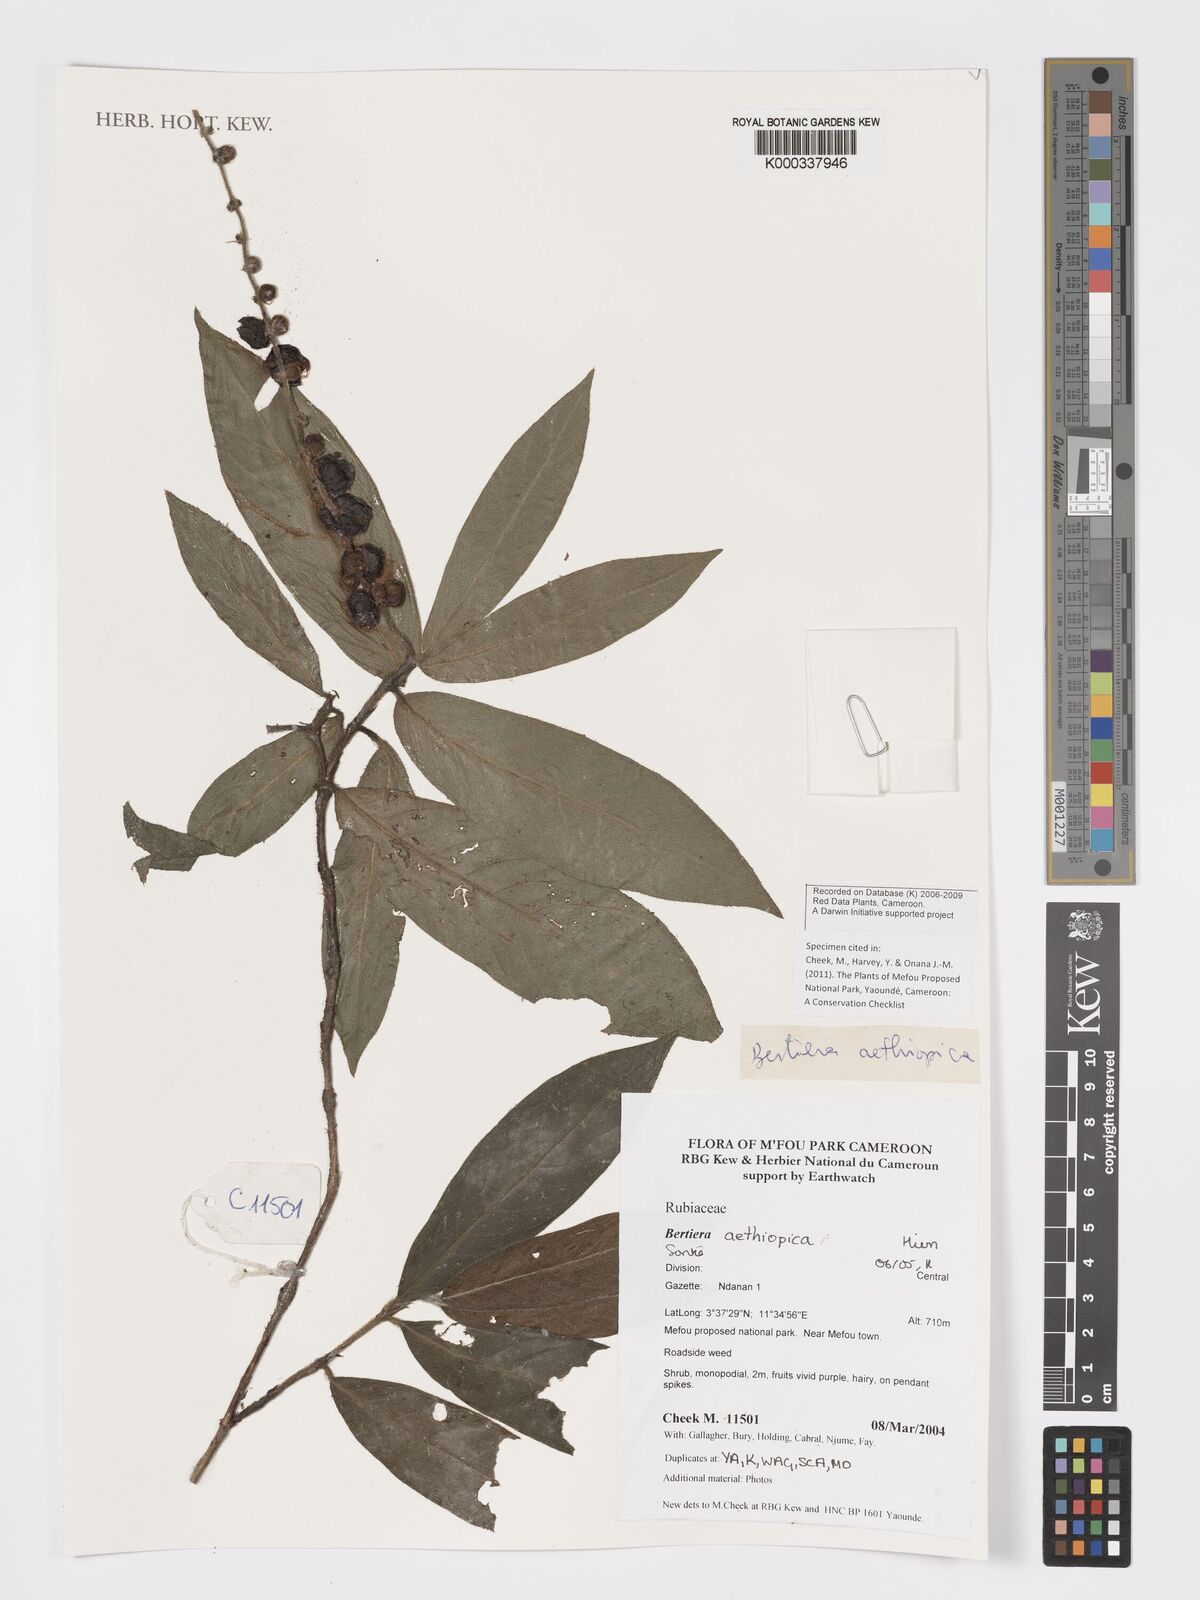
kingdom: Plantae
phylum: Tracheophyta
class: Magnoliopsida
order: Gentianales
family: Rubiaceae
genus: Bertiera
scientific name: Bertiera aethiopica
